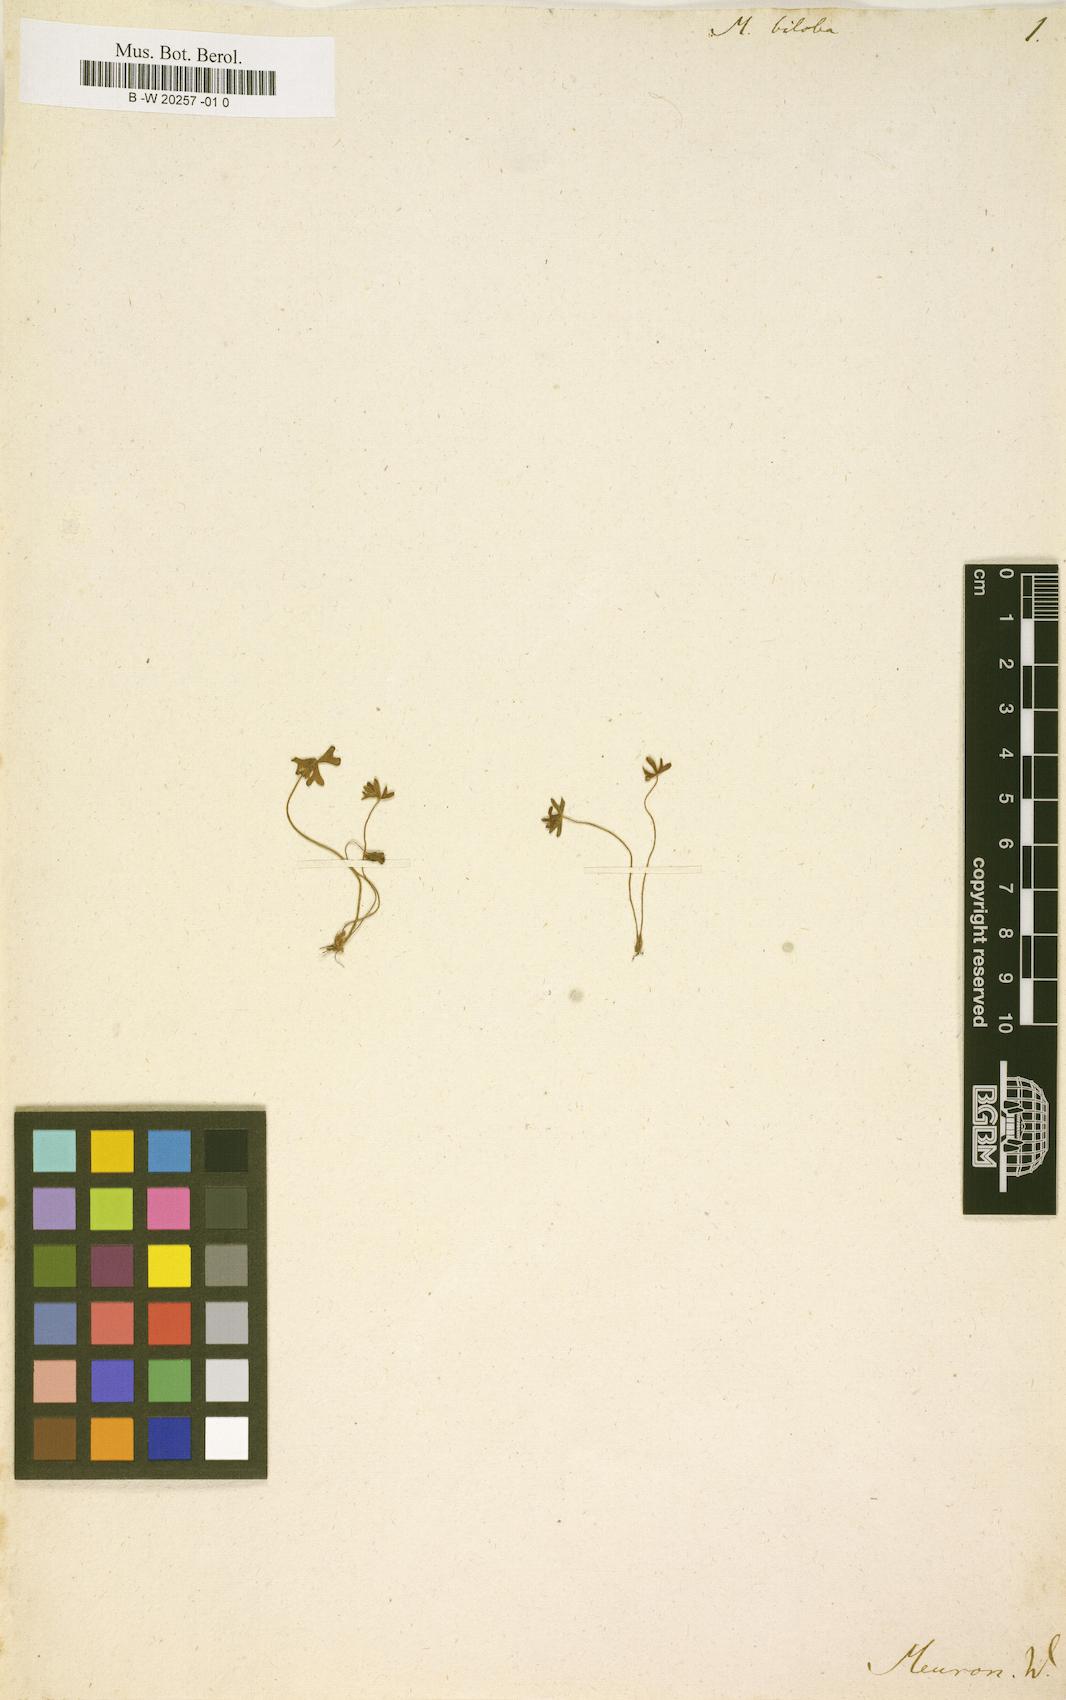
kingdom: Plantae
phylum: Tracheophyta
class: Polypodiopsida
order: Salviniales
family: Marsileaceae
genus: Marsilea
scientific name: Marsilea burchellii
